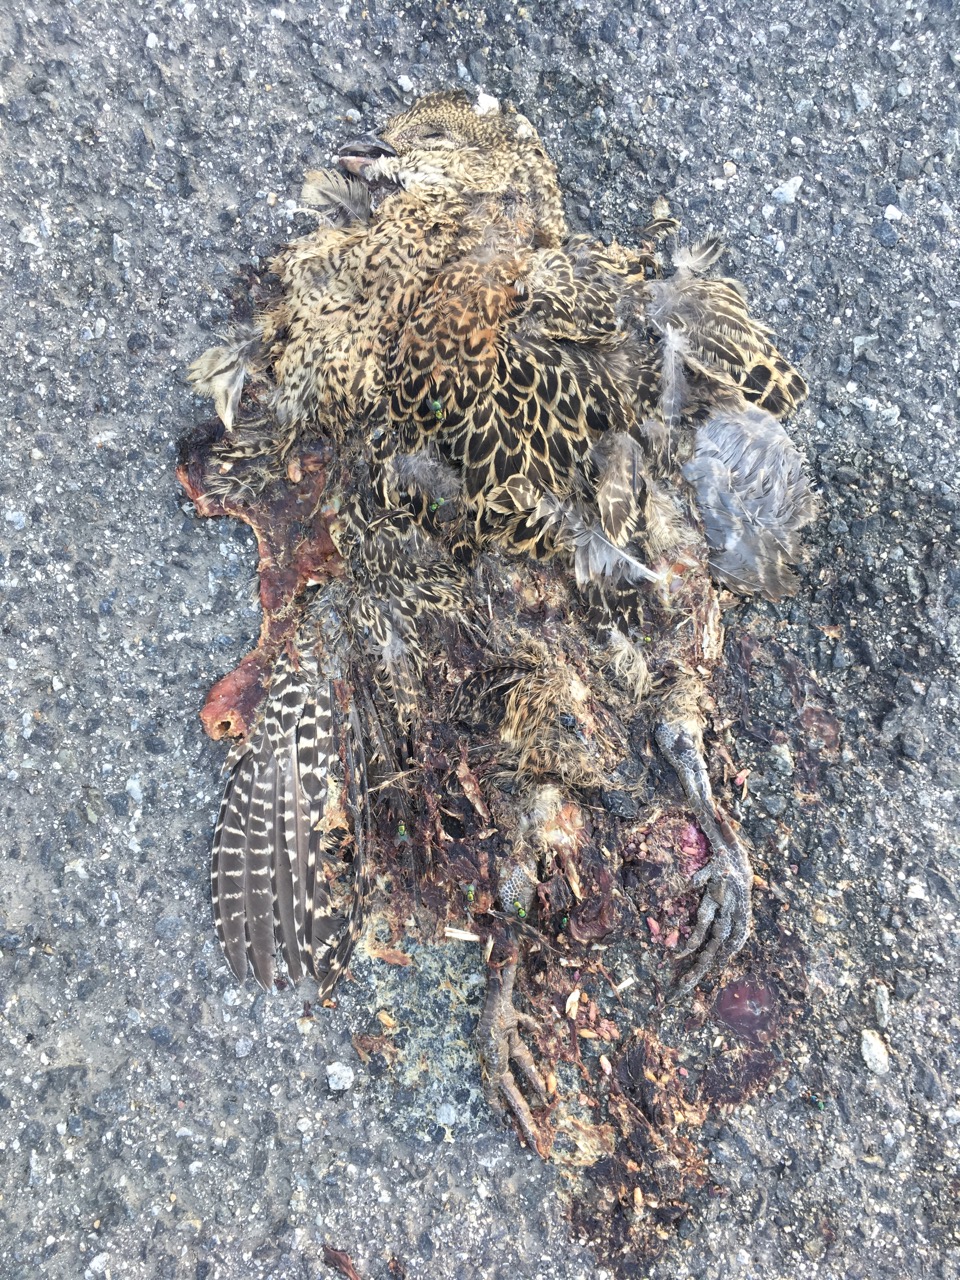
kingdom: Animalia
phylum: Chordata
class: Aves
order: Galliformes
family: Phasianidae
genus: Phasianus
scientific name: Phasianus colchicus
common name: Common pheasant
